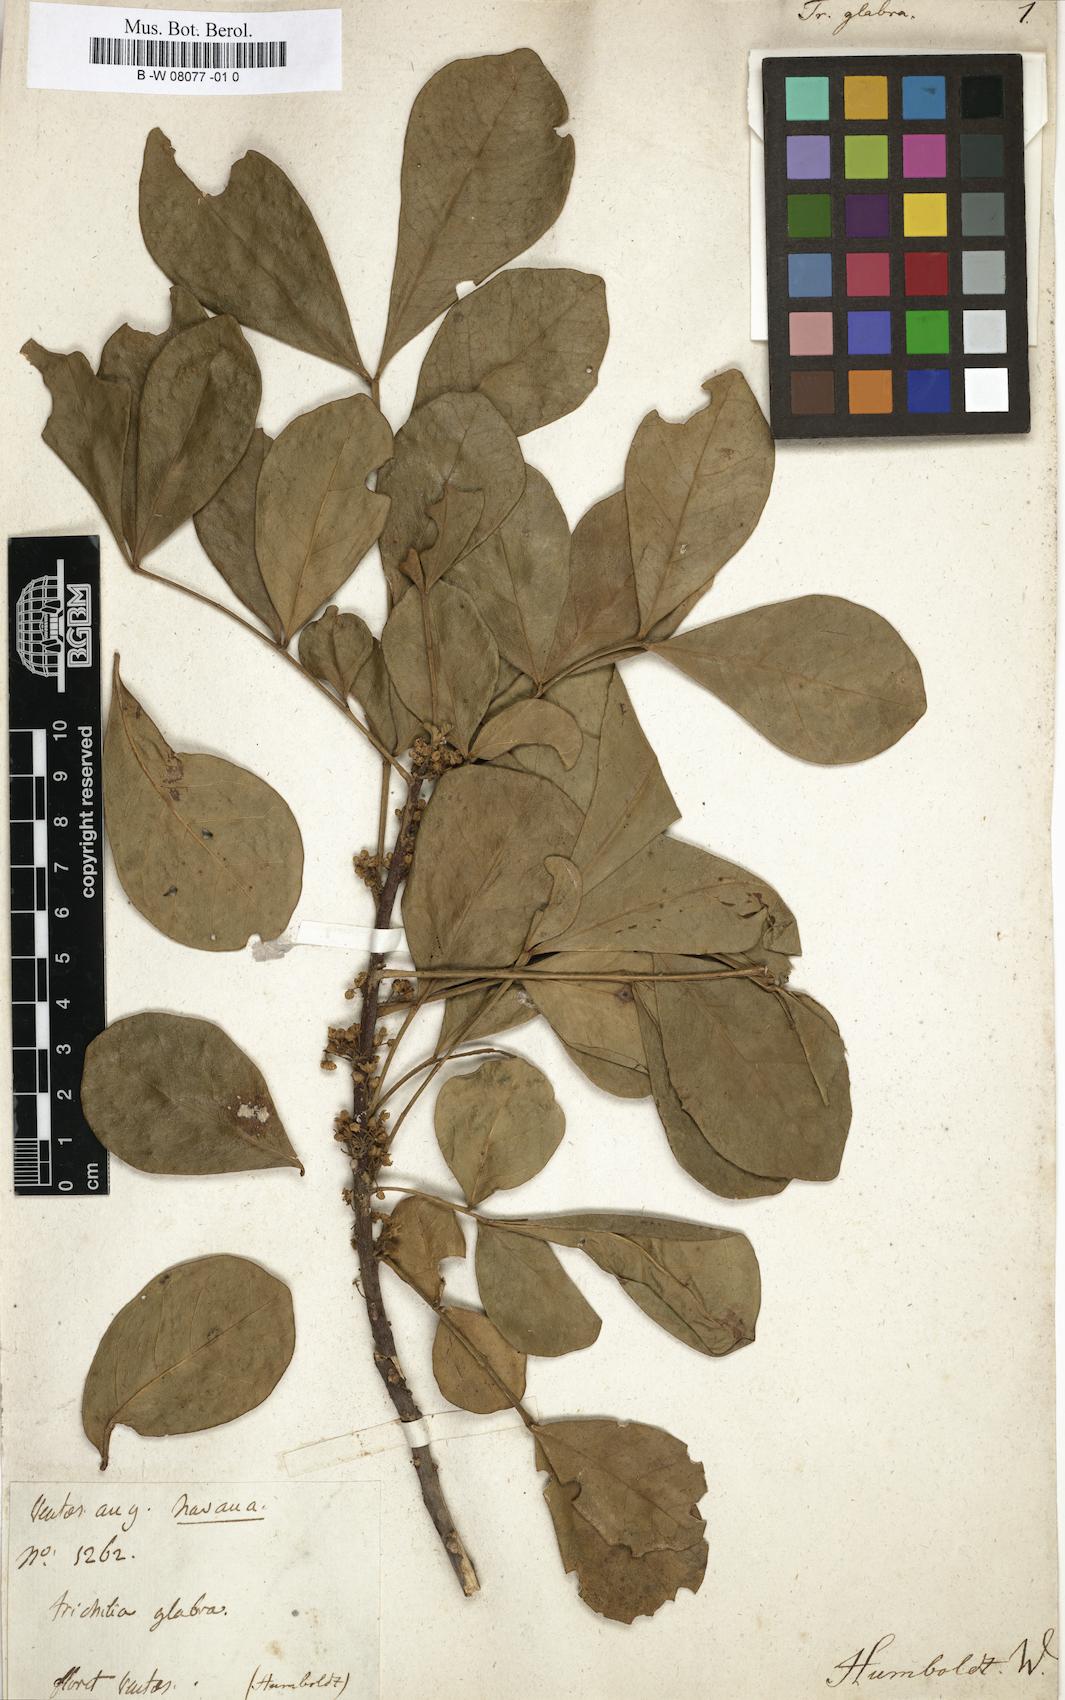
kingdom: Plantae
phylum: Tracheophyta
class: Magnoliopsida
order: Sapindales
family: Meliaceae
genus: Trichilia
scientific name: Trichilia glabra
